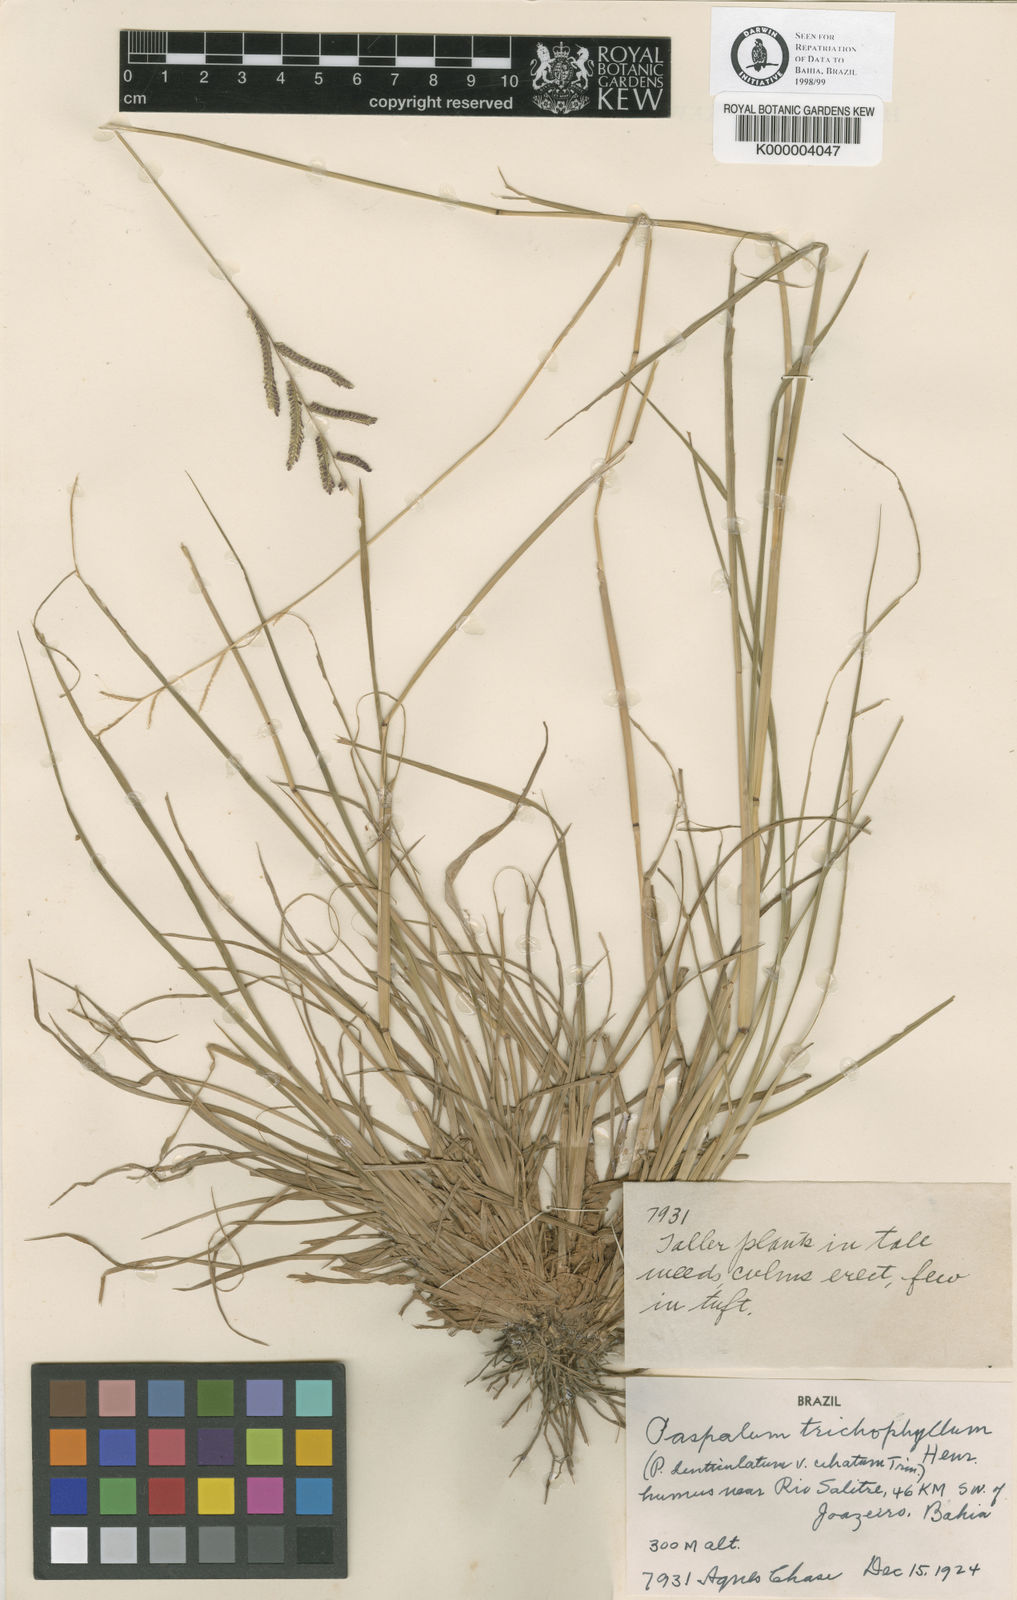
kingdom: Plantae
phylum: Tracheophyta
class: Liliopsida
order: Poales
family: Poaceae
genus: Paspalum
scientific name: Paspalum trichophyllum
